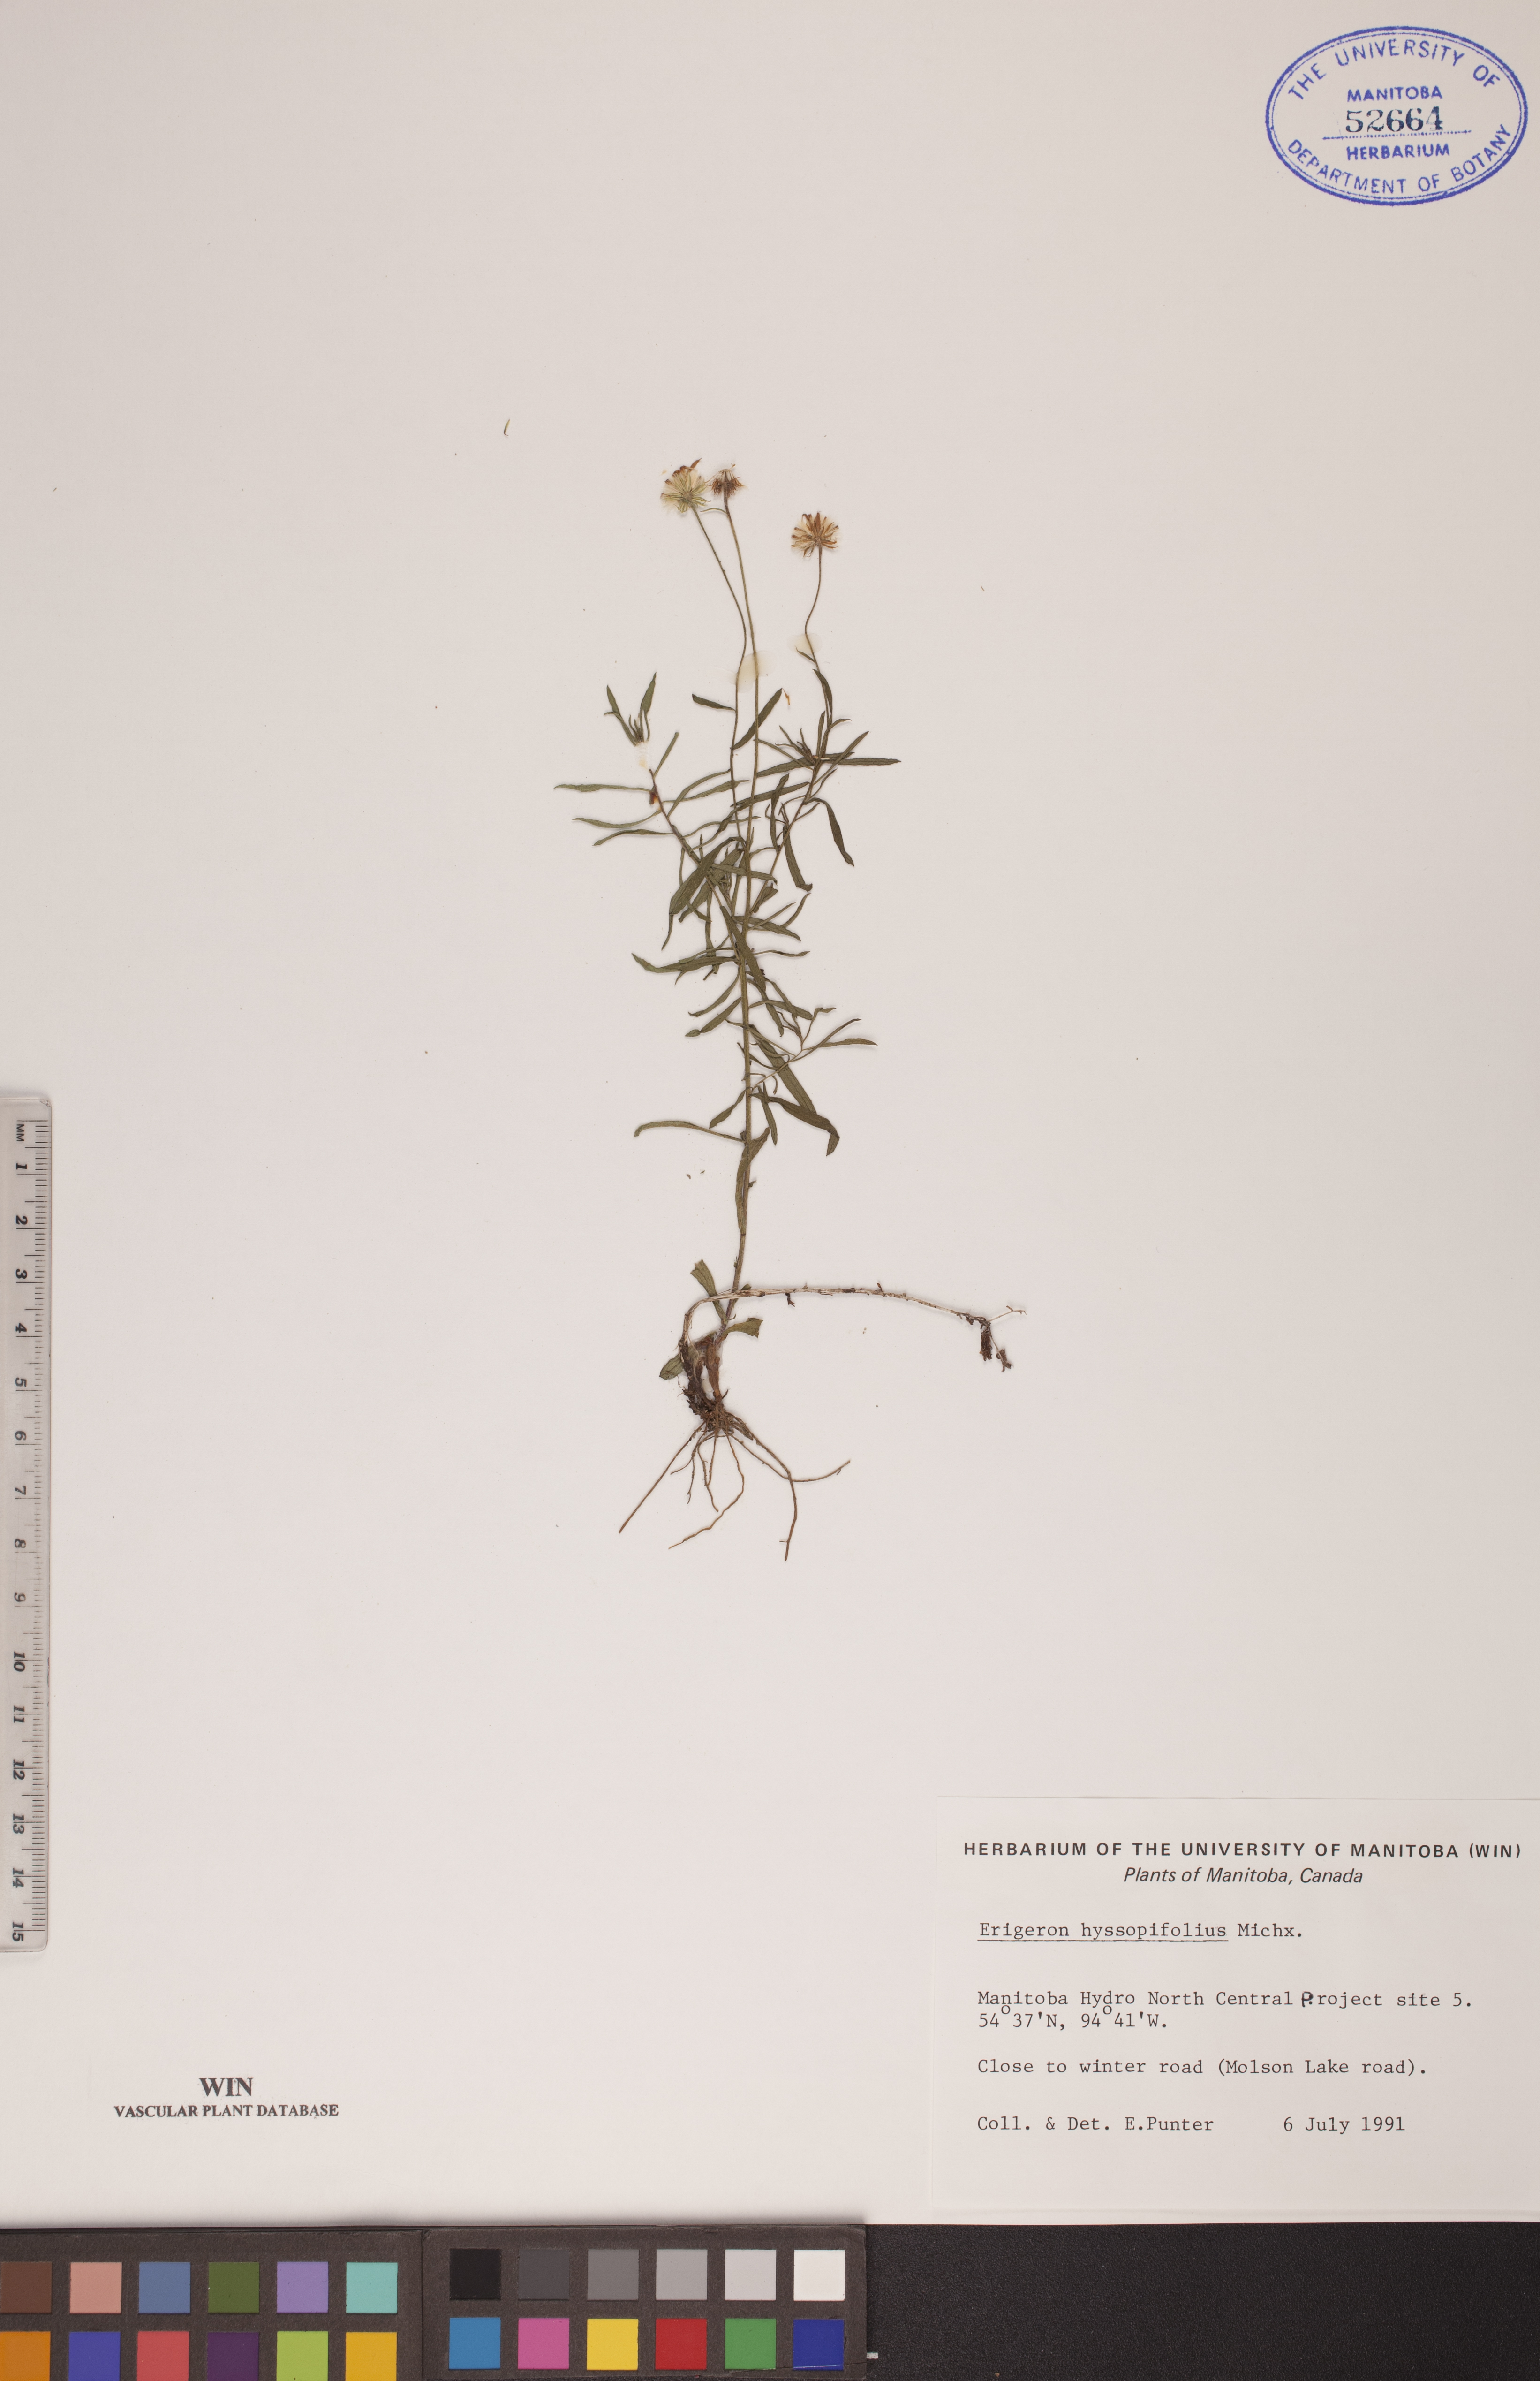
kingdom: Plantae
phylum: Tracheophyta
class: Magnoliopsida
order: Asterales
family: Asteraceae
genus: Erigeron
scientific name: Erigeron hyssopifolius
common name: Daisy fleabane
